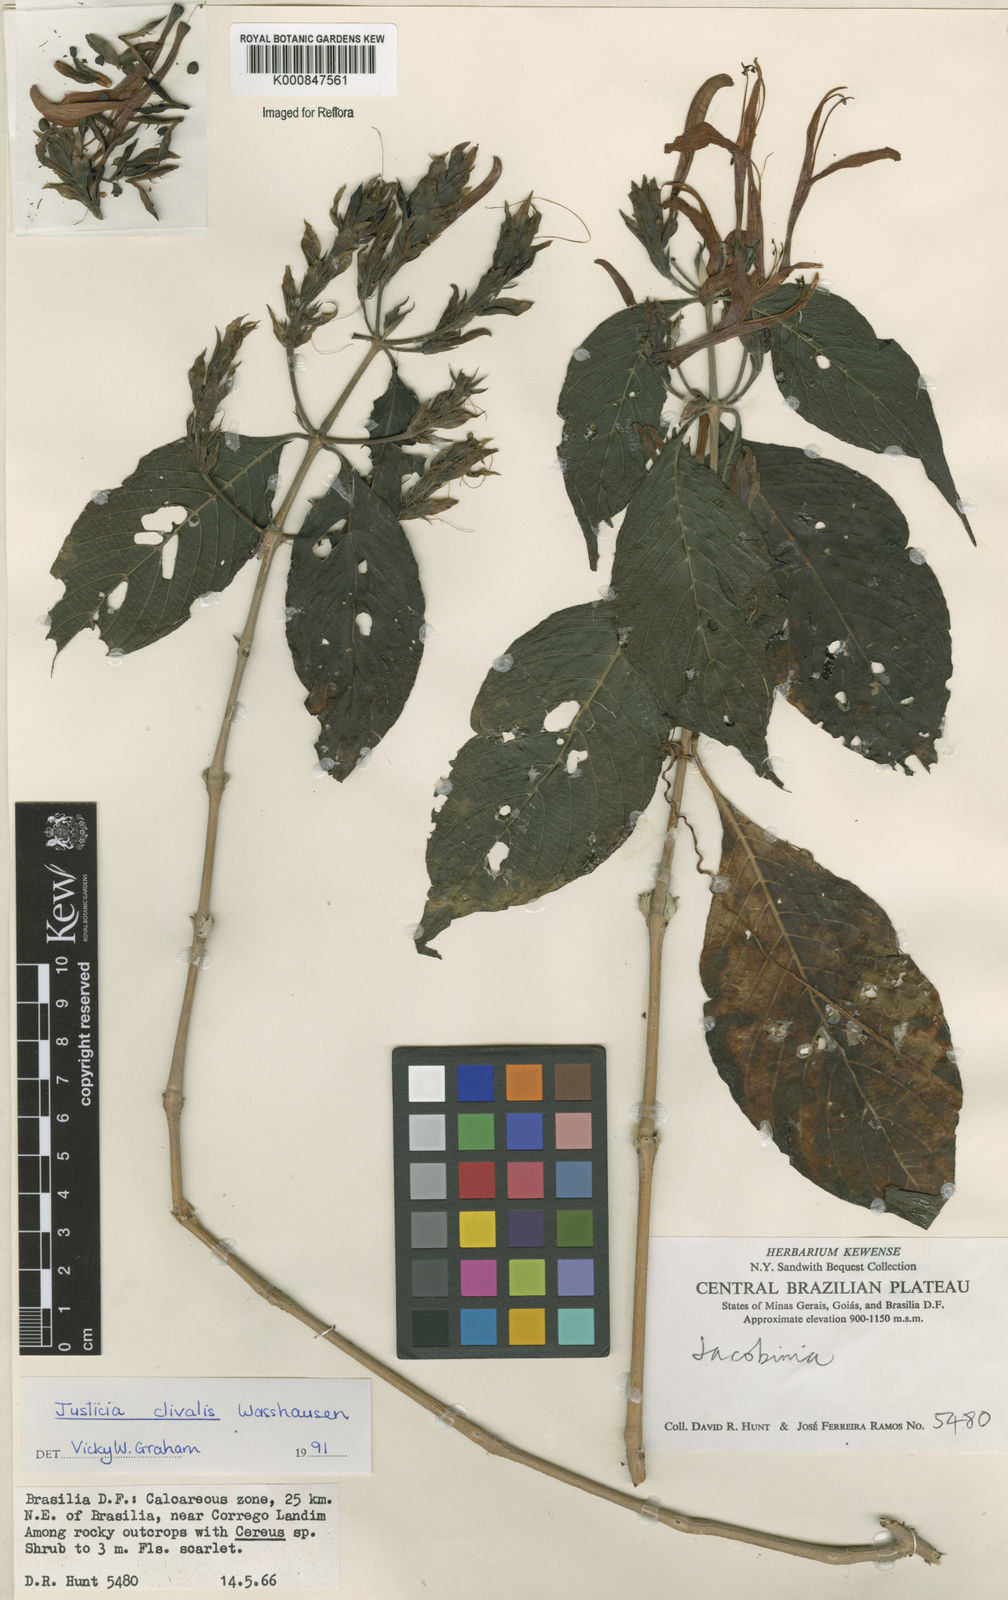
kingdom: Plantae
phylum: Tracheophyta
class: Magnoliopsida
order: Lamiales
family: Acanthaceae
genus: Justicia
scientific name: Justicia clivalis
